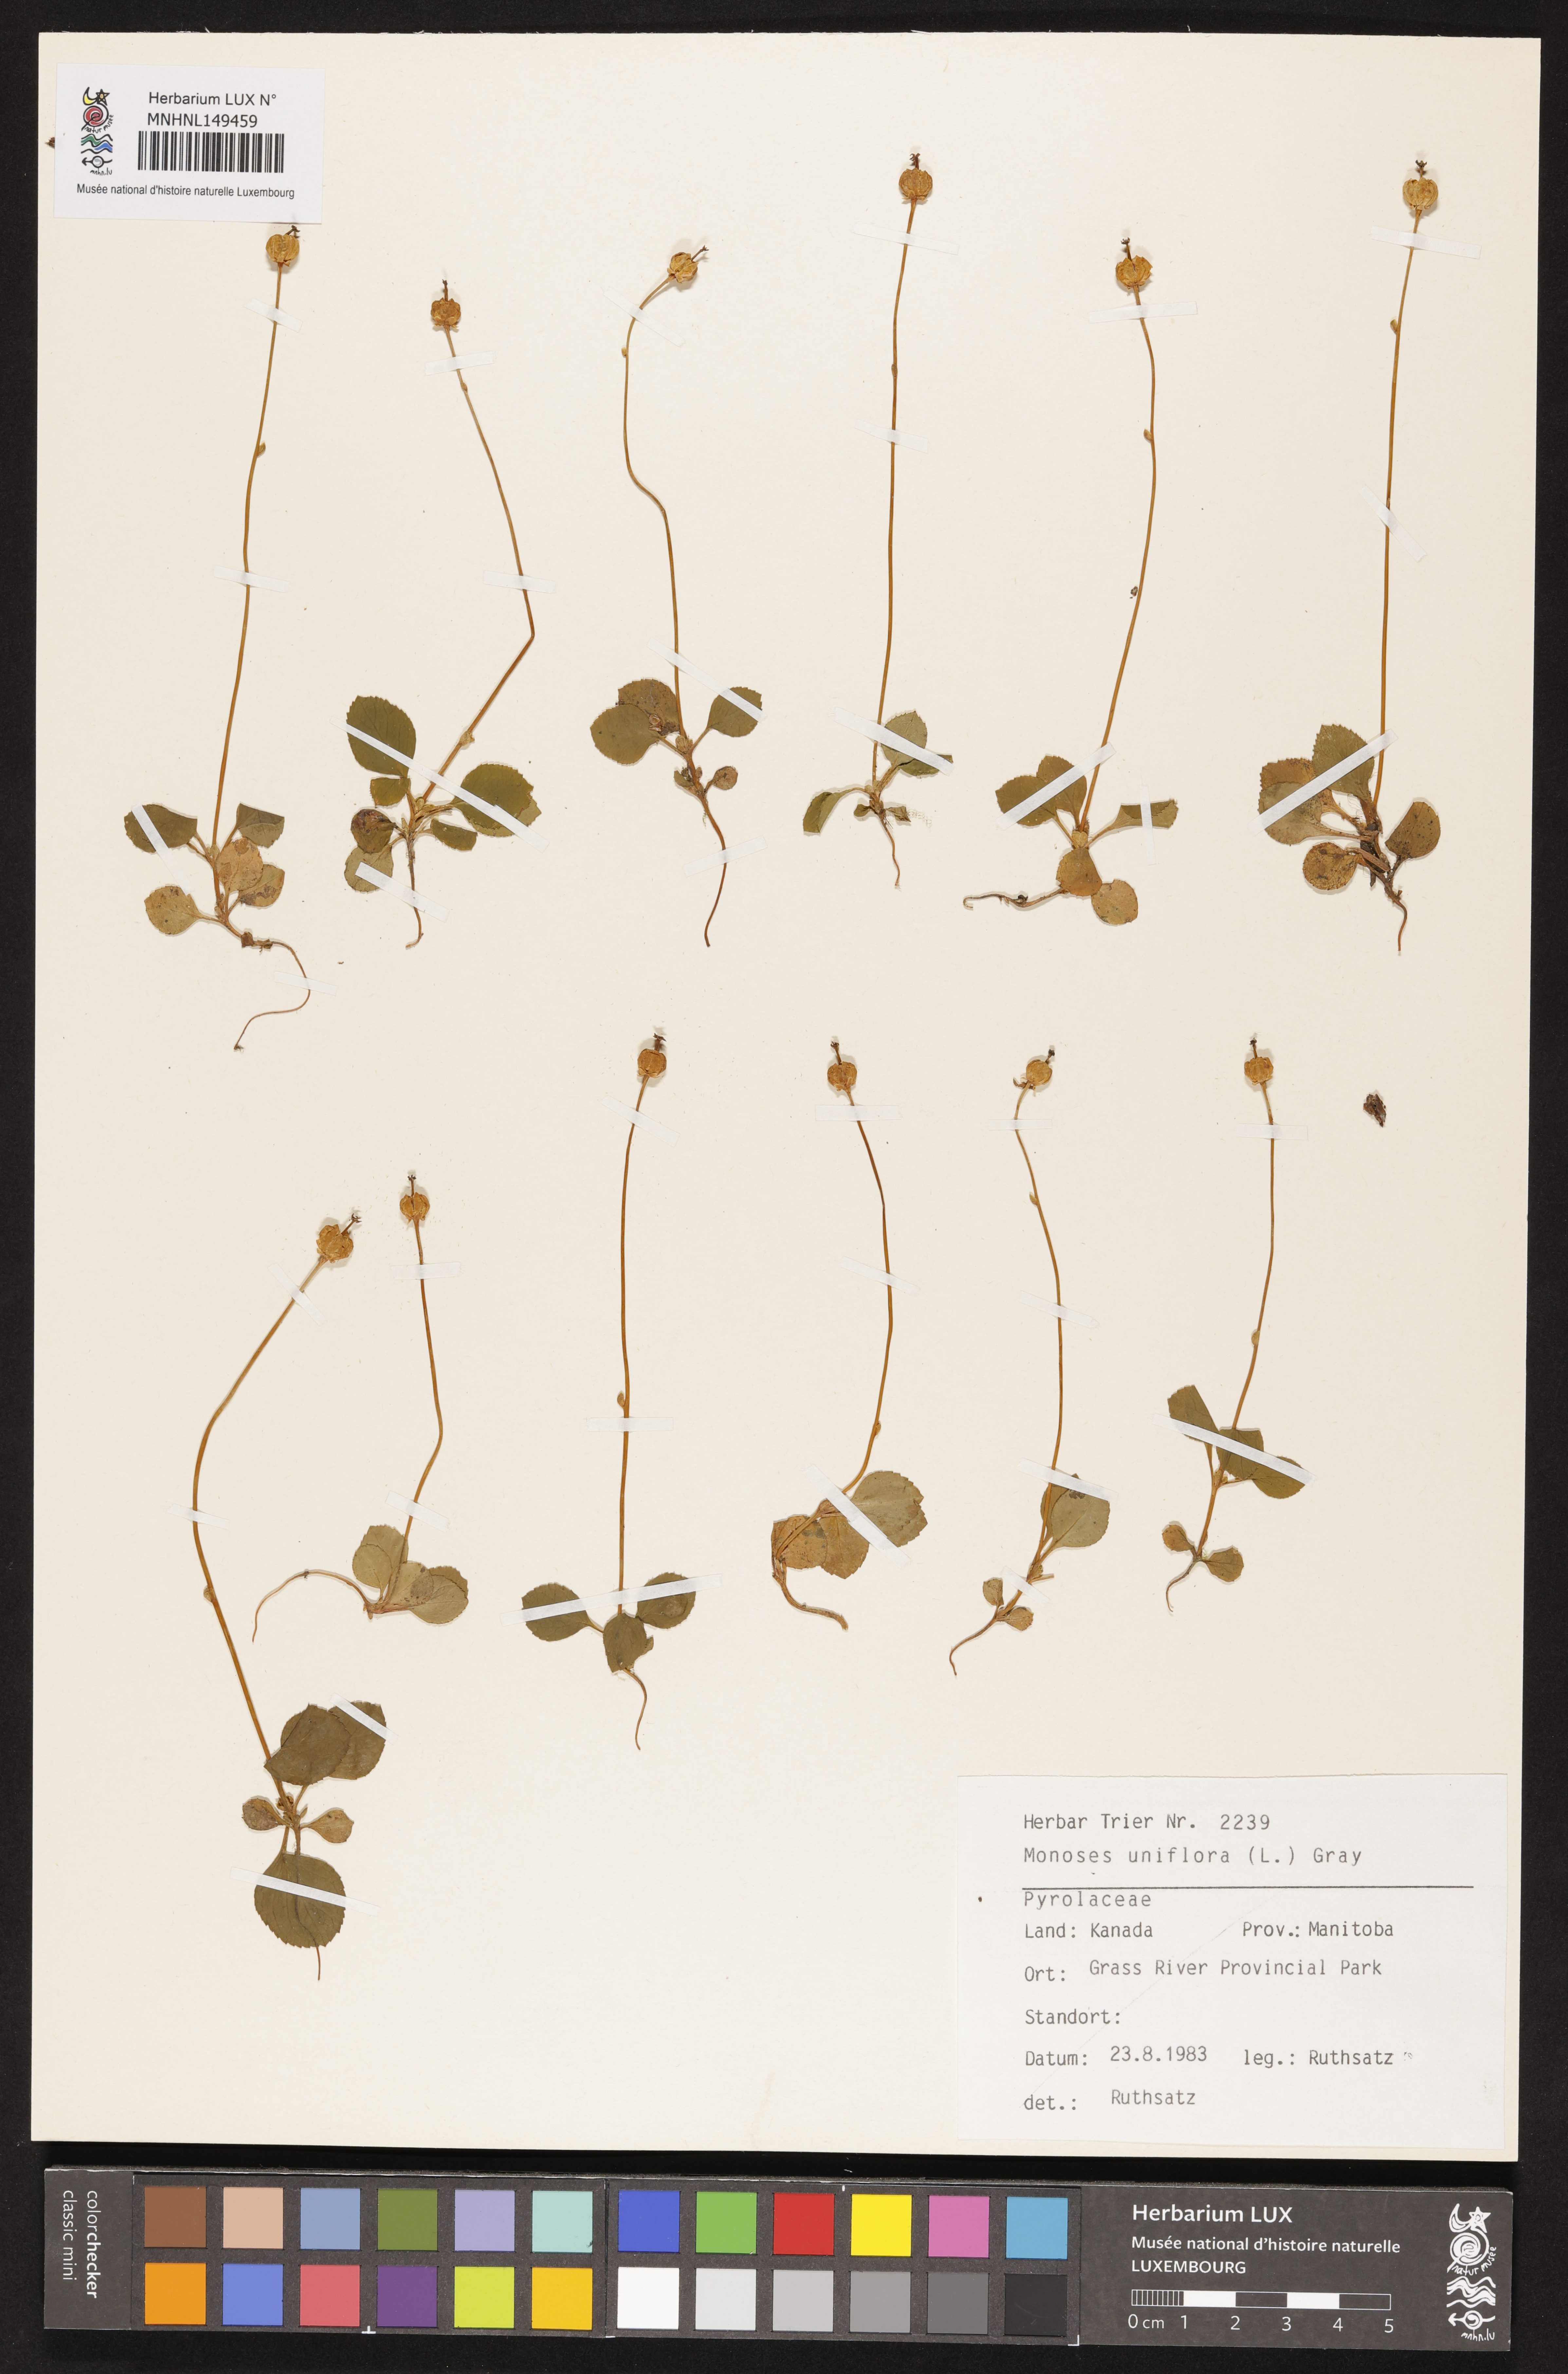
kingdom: Plantae
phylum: Tracheophyta
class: Magnoliopsida
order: Ericales
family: Ericaceae
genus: Moneses
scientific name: Moneses uniflora
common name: One-flowered wintergreen
